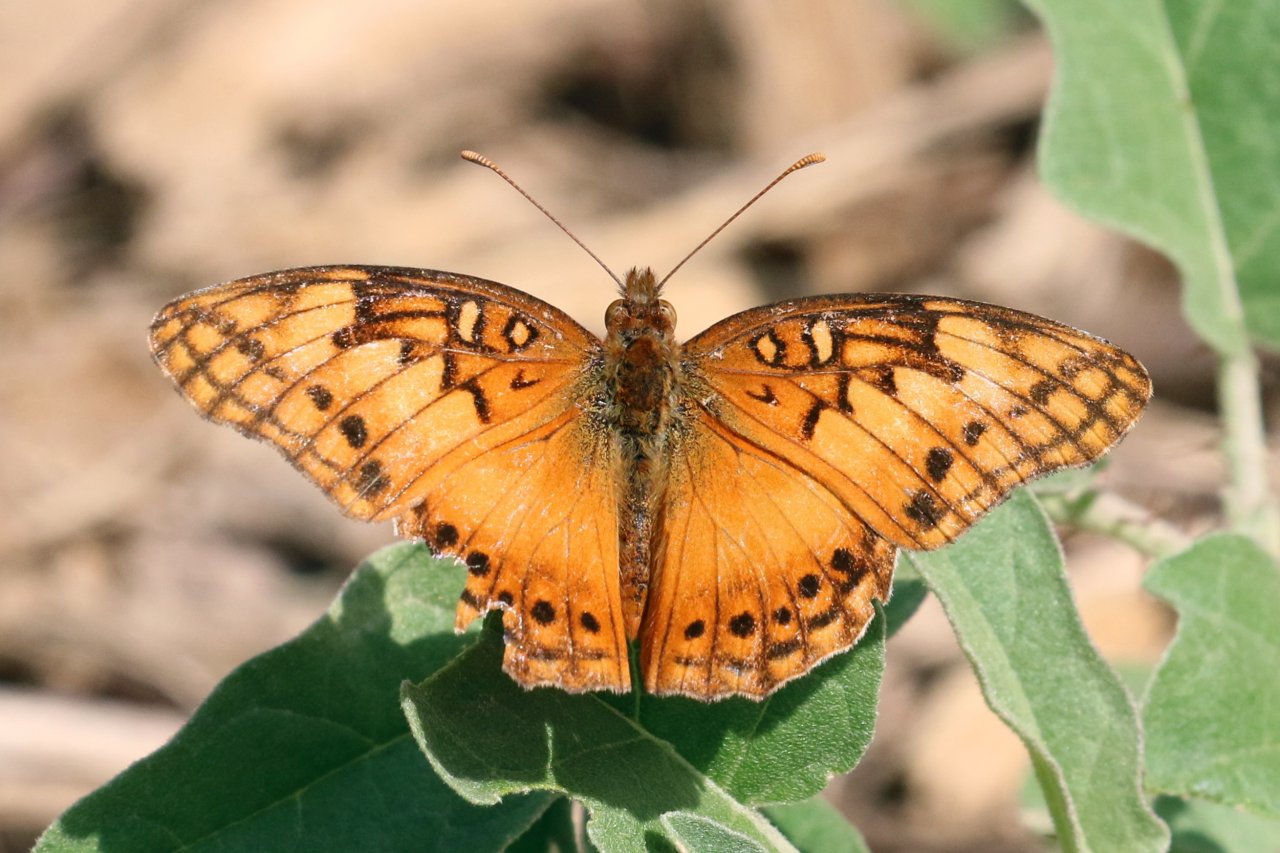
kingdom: Animalia
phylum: Arthropoda
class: Insecta
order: Lepidoptera
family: Nymphalidae
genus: Euptoieta
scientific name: Euptoieta hegesia
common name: Mexican Fritillary
